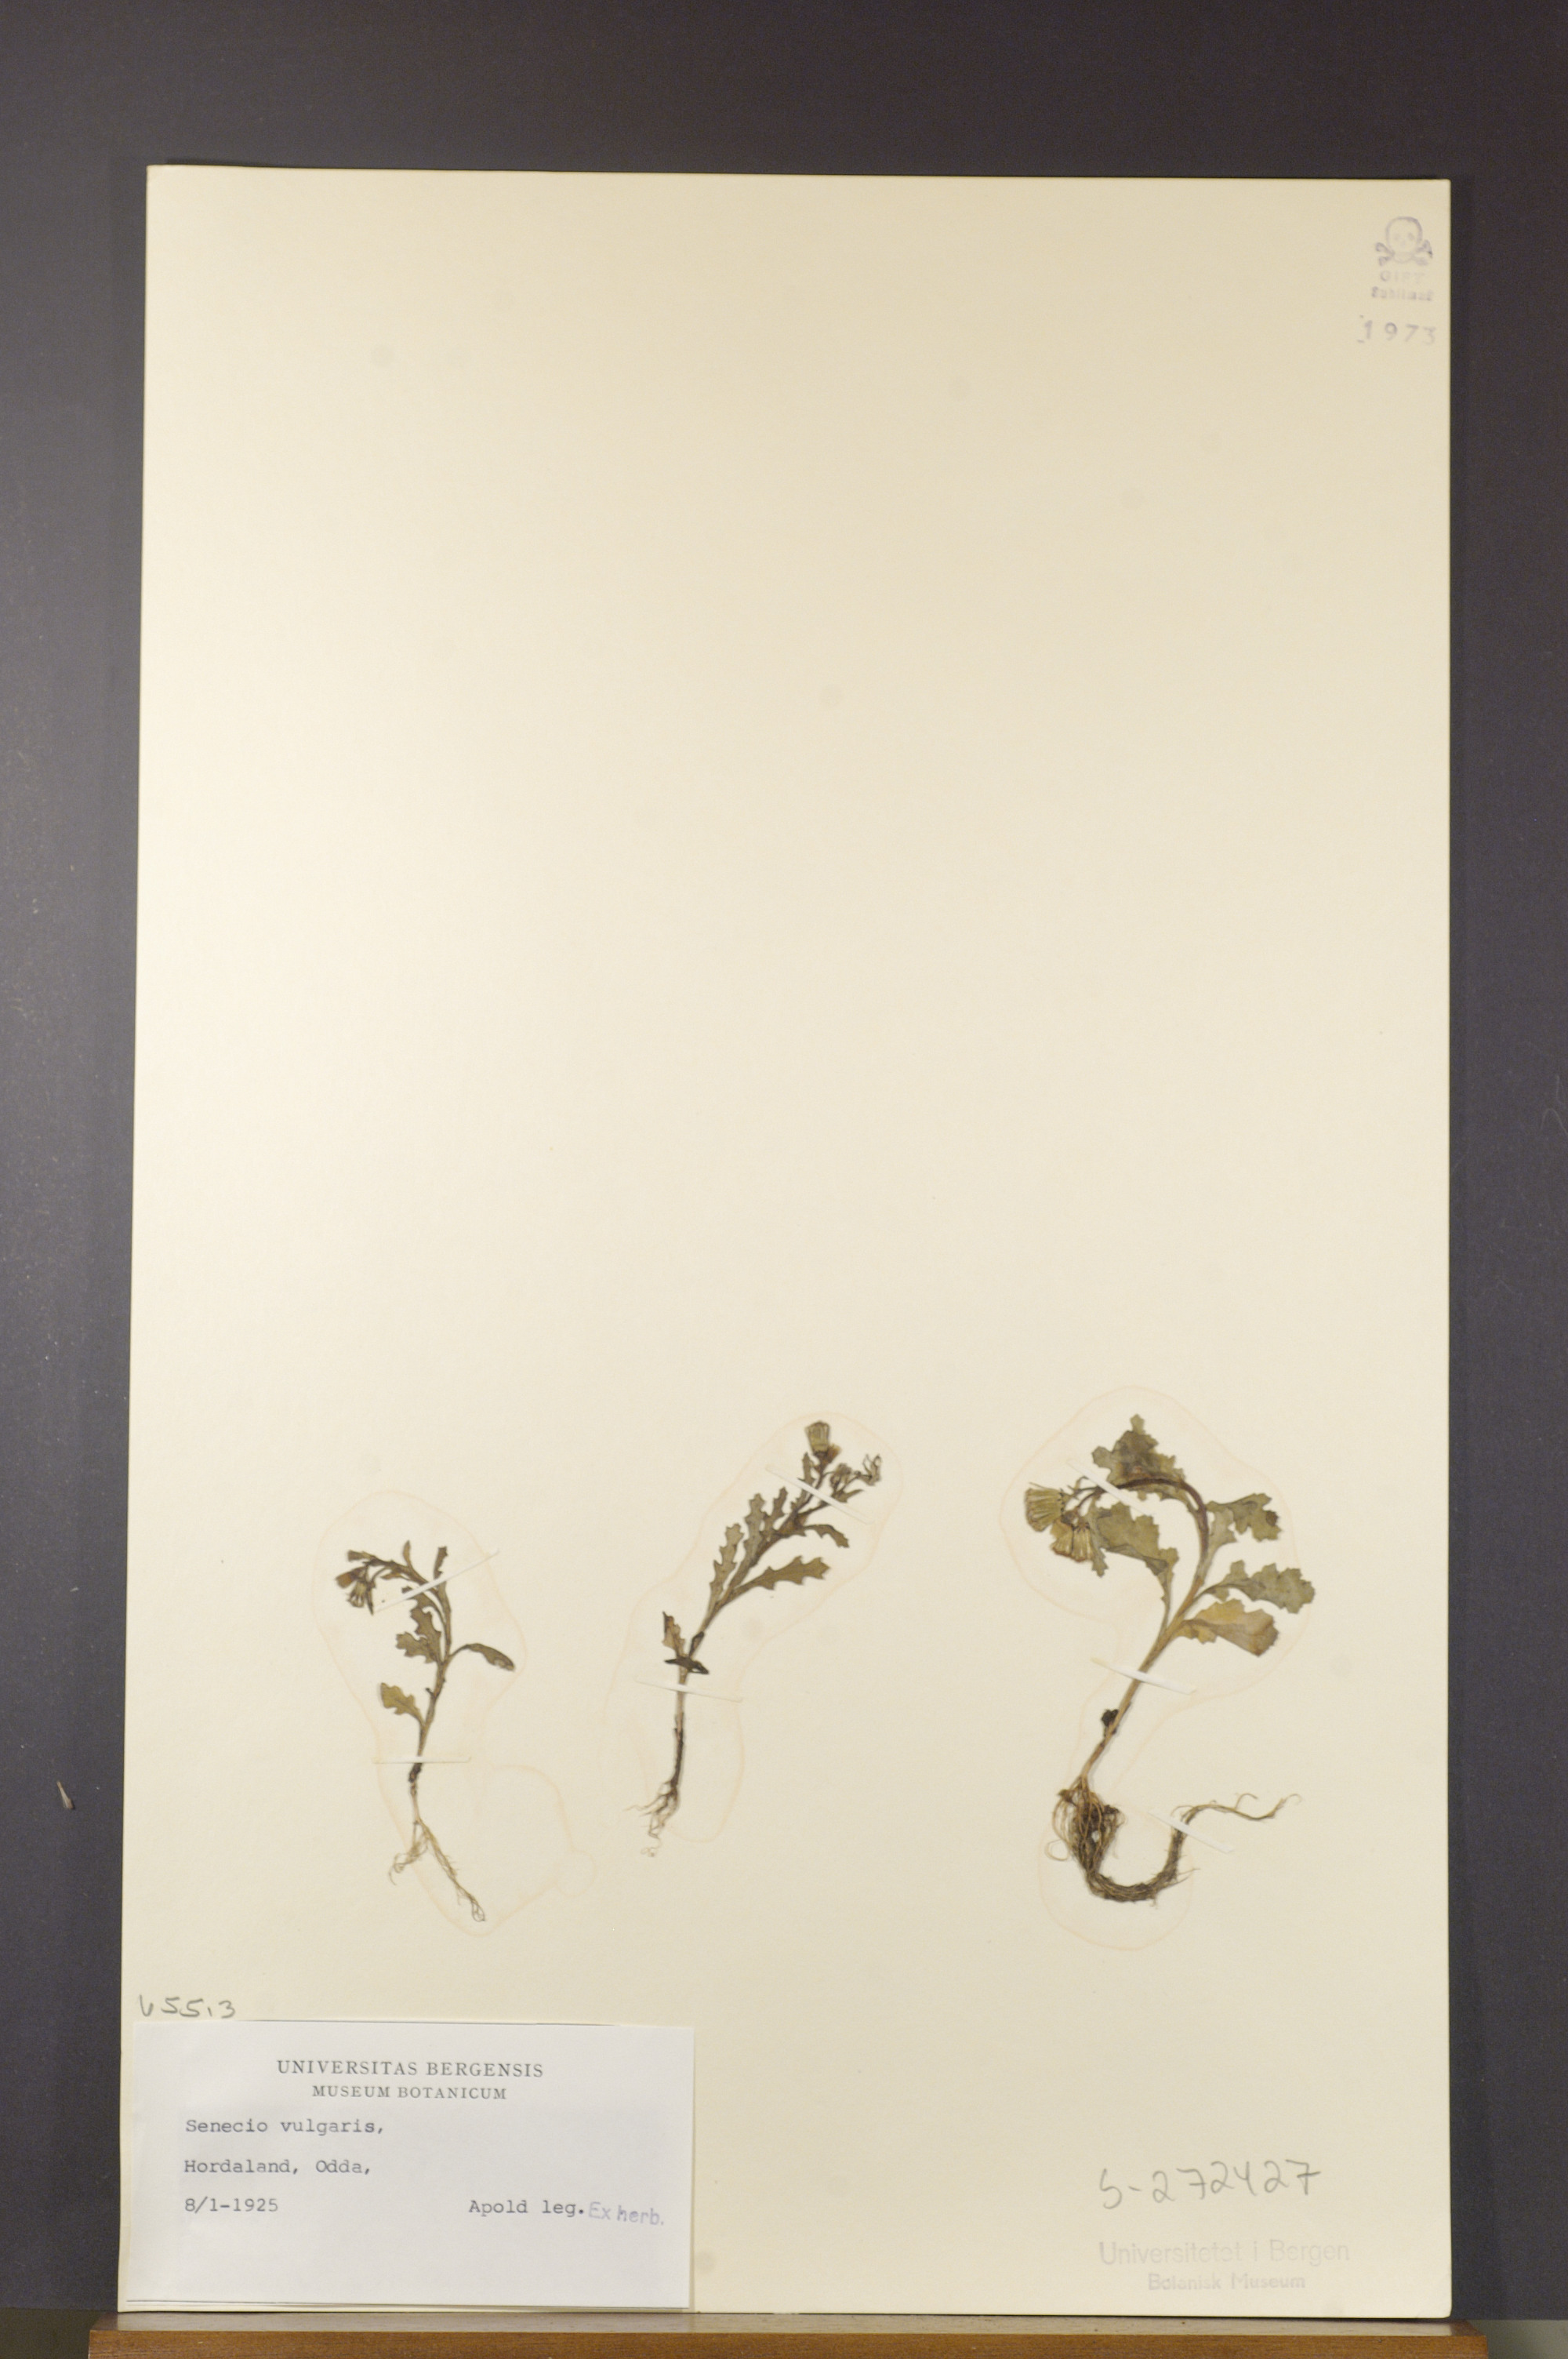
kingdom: Plantae
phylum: Tracheophyta
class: Magnoliopsida
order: Asterales
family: Asteraceae
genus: Senecio
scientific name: Senecio vulgaris
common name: Old-man-in-the-spring
